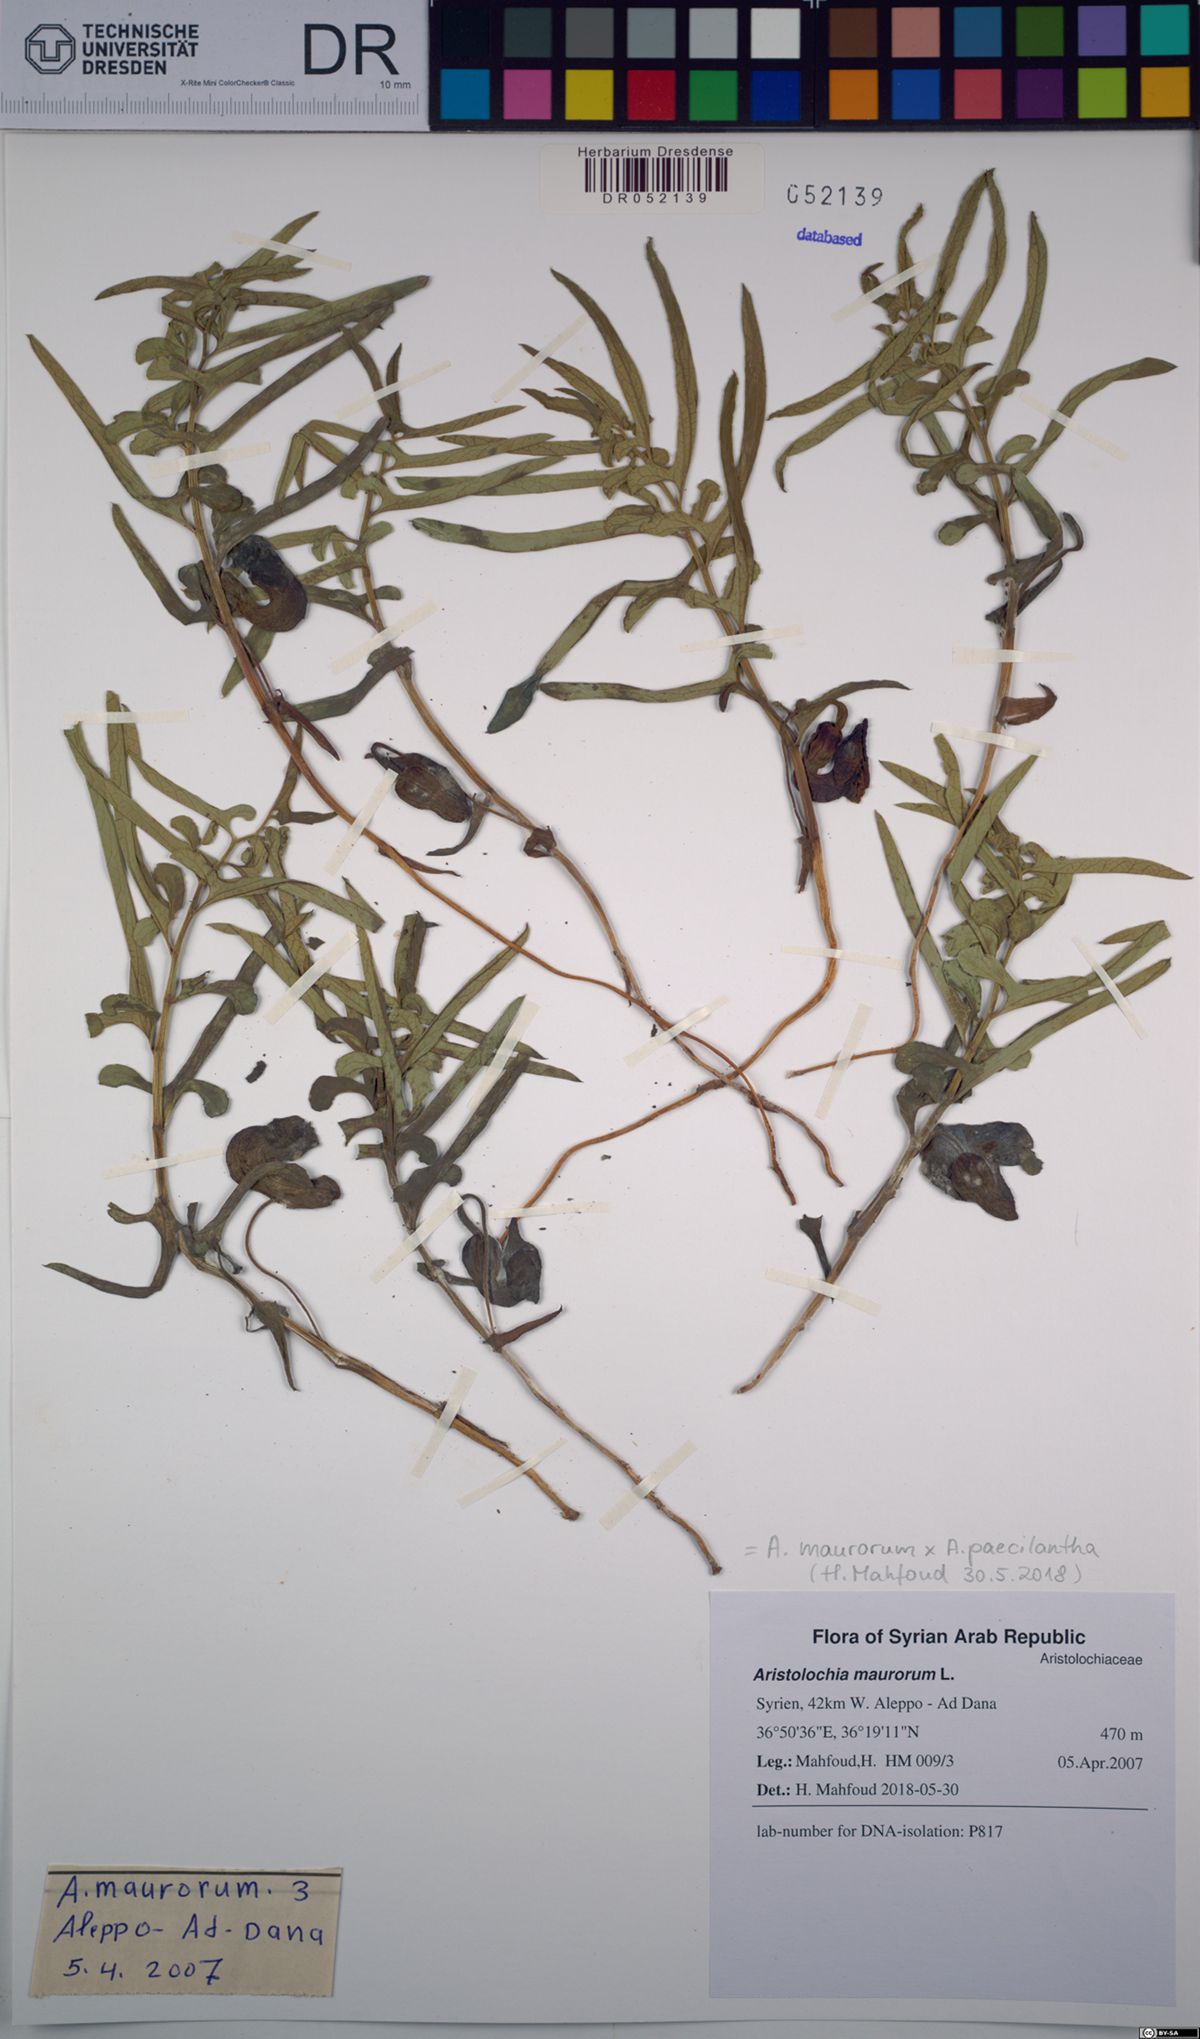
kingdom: Plantae
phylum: Tracheophyta
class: Magnoliopsida
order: Piperales
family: Aristolochiaceae
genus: Aristolochia
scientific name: Aristolochia maurorum
